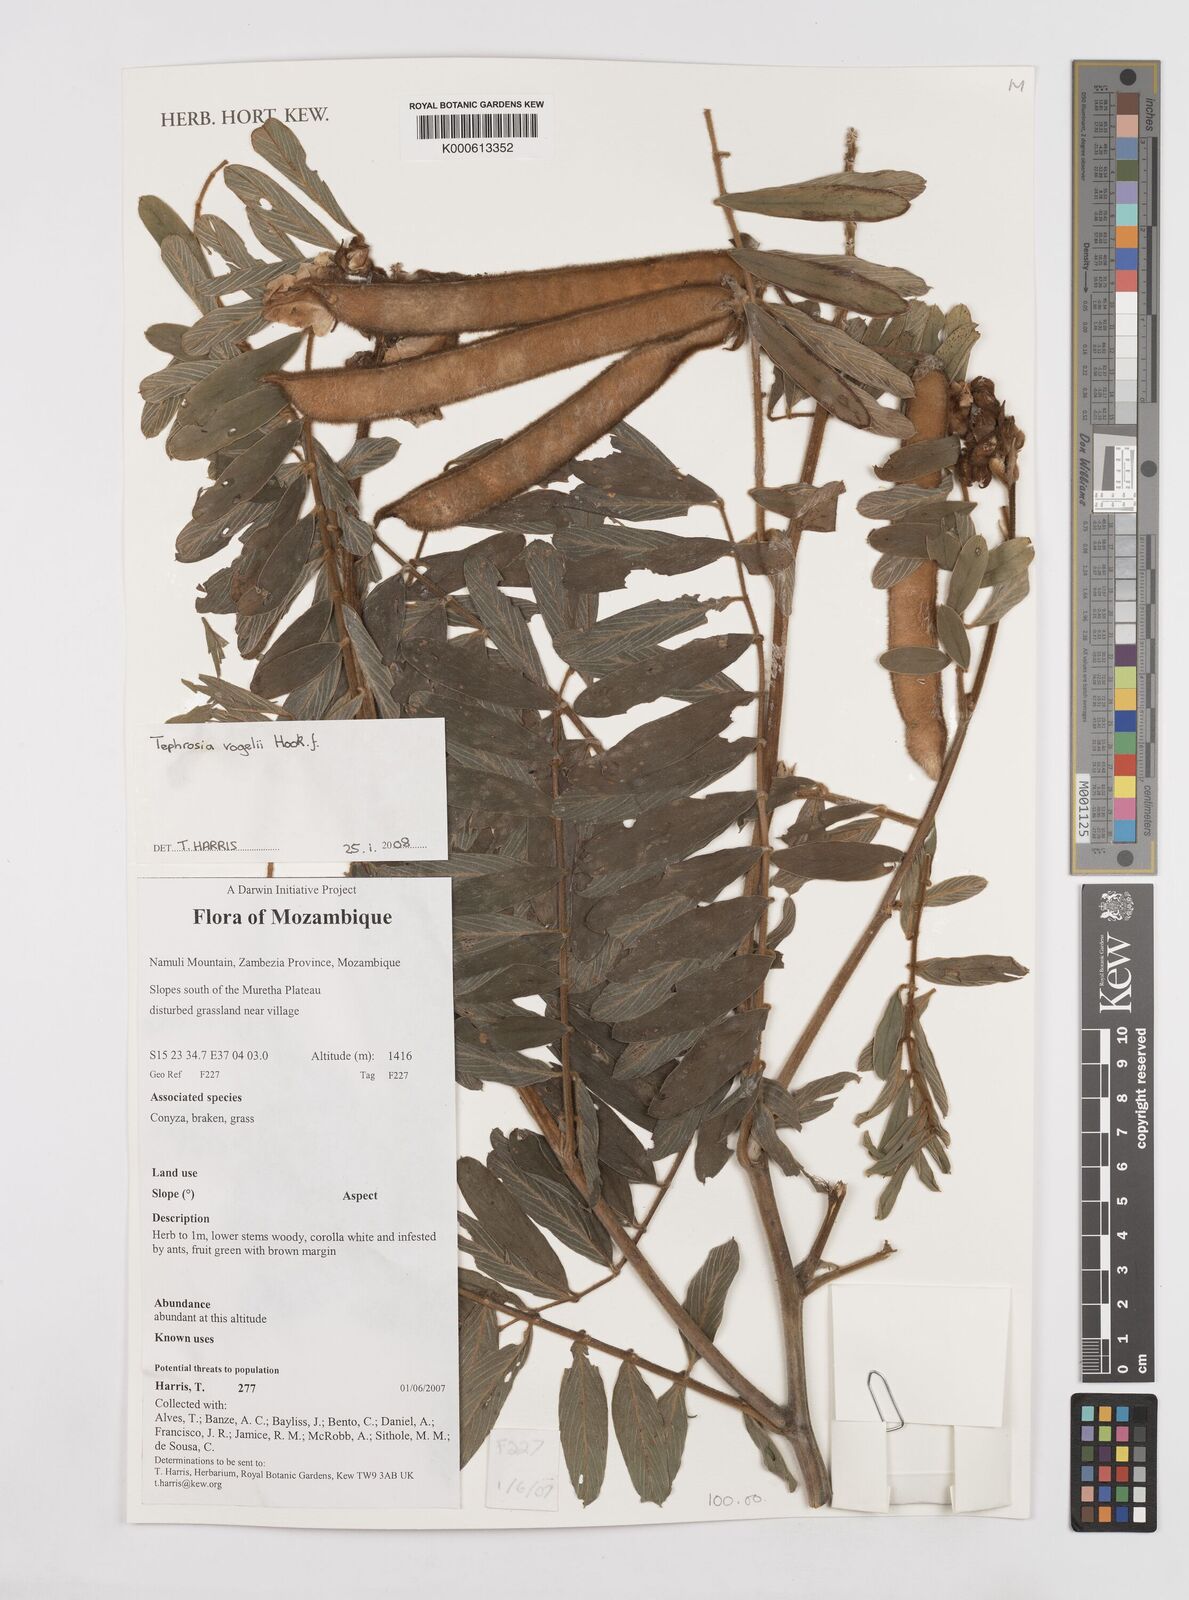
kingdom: Plantae
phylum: Tracheophyta
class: Magnoliopsida
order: Fabales
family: Fabaceae
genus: Tephrosia
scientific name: Tephrosia vogelii
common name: Vogel tephrosia
